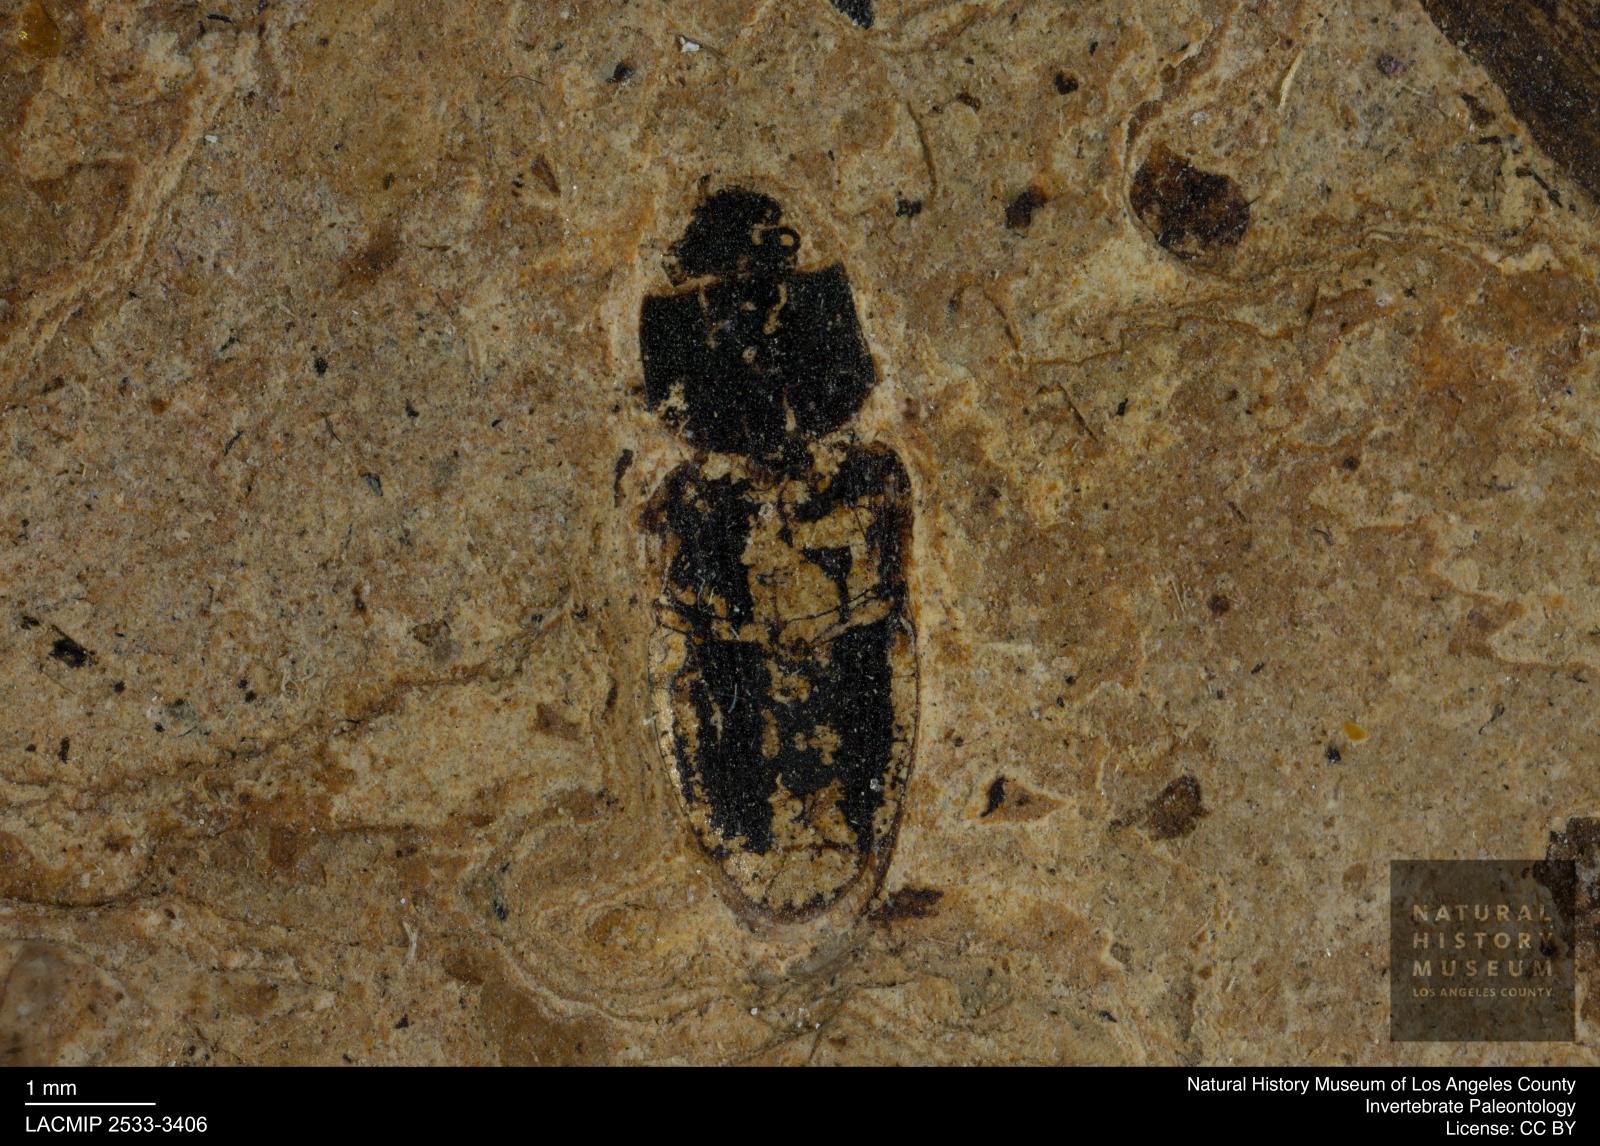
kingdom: Animalia
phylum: Arthropoda
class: Insecta
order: Coleoptera
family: Elateridae
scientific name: Elateridae
